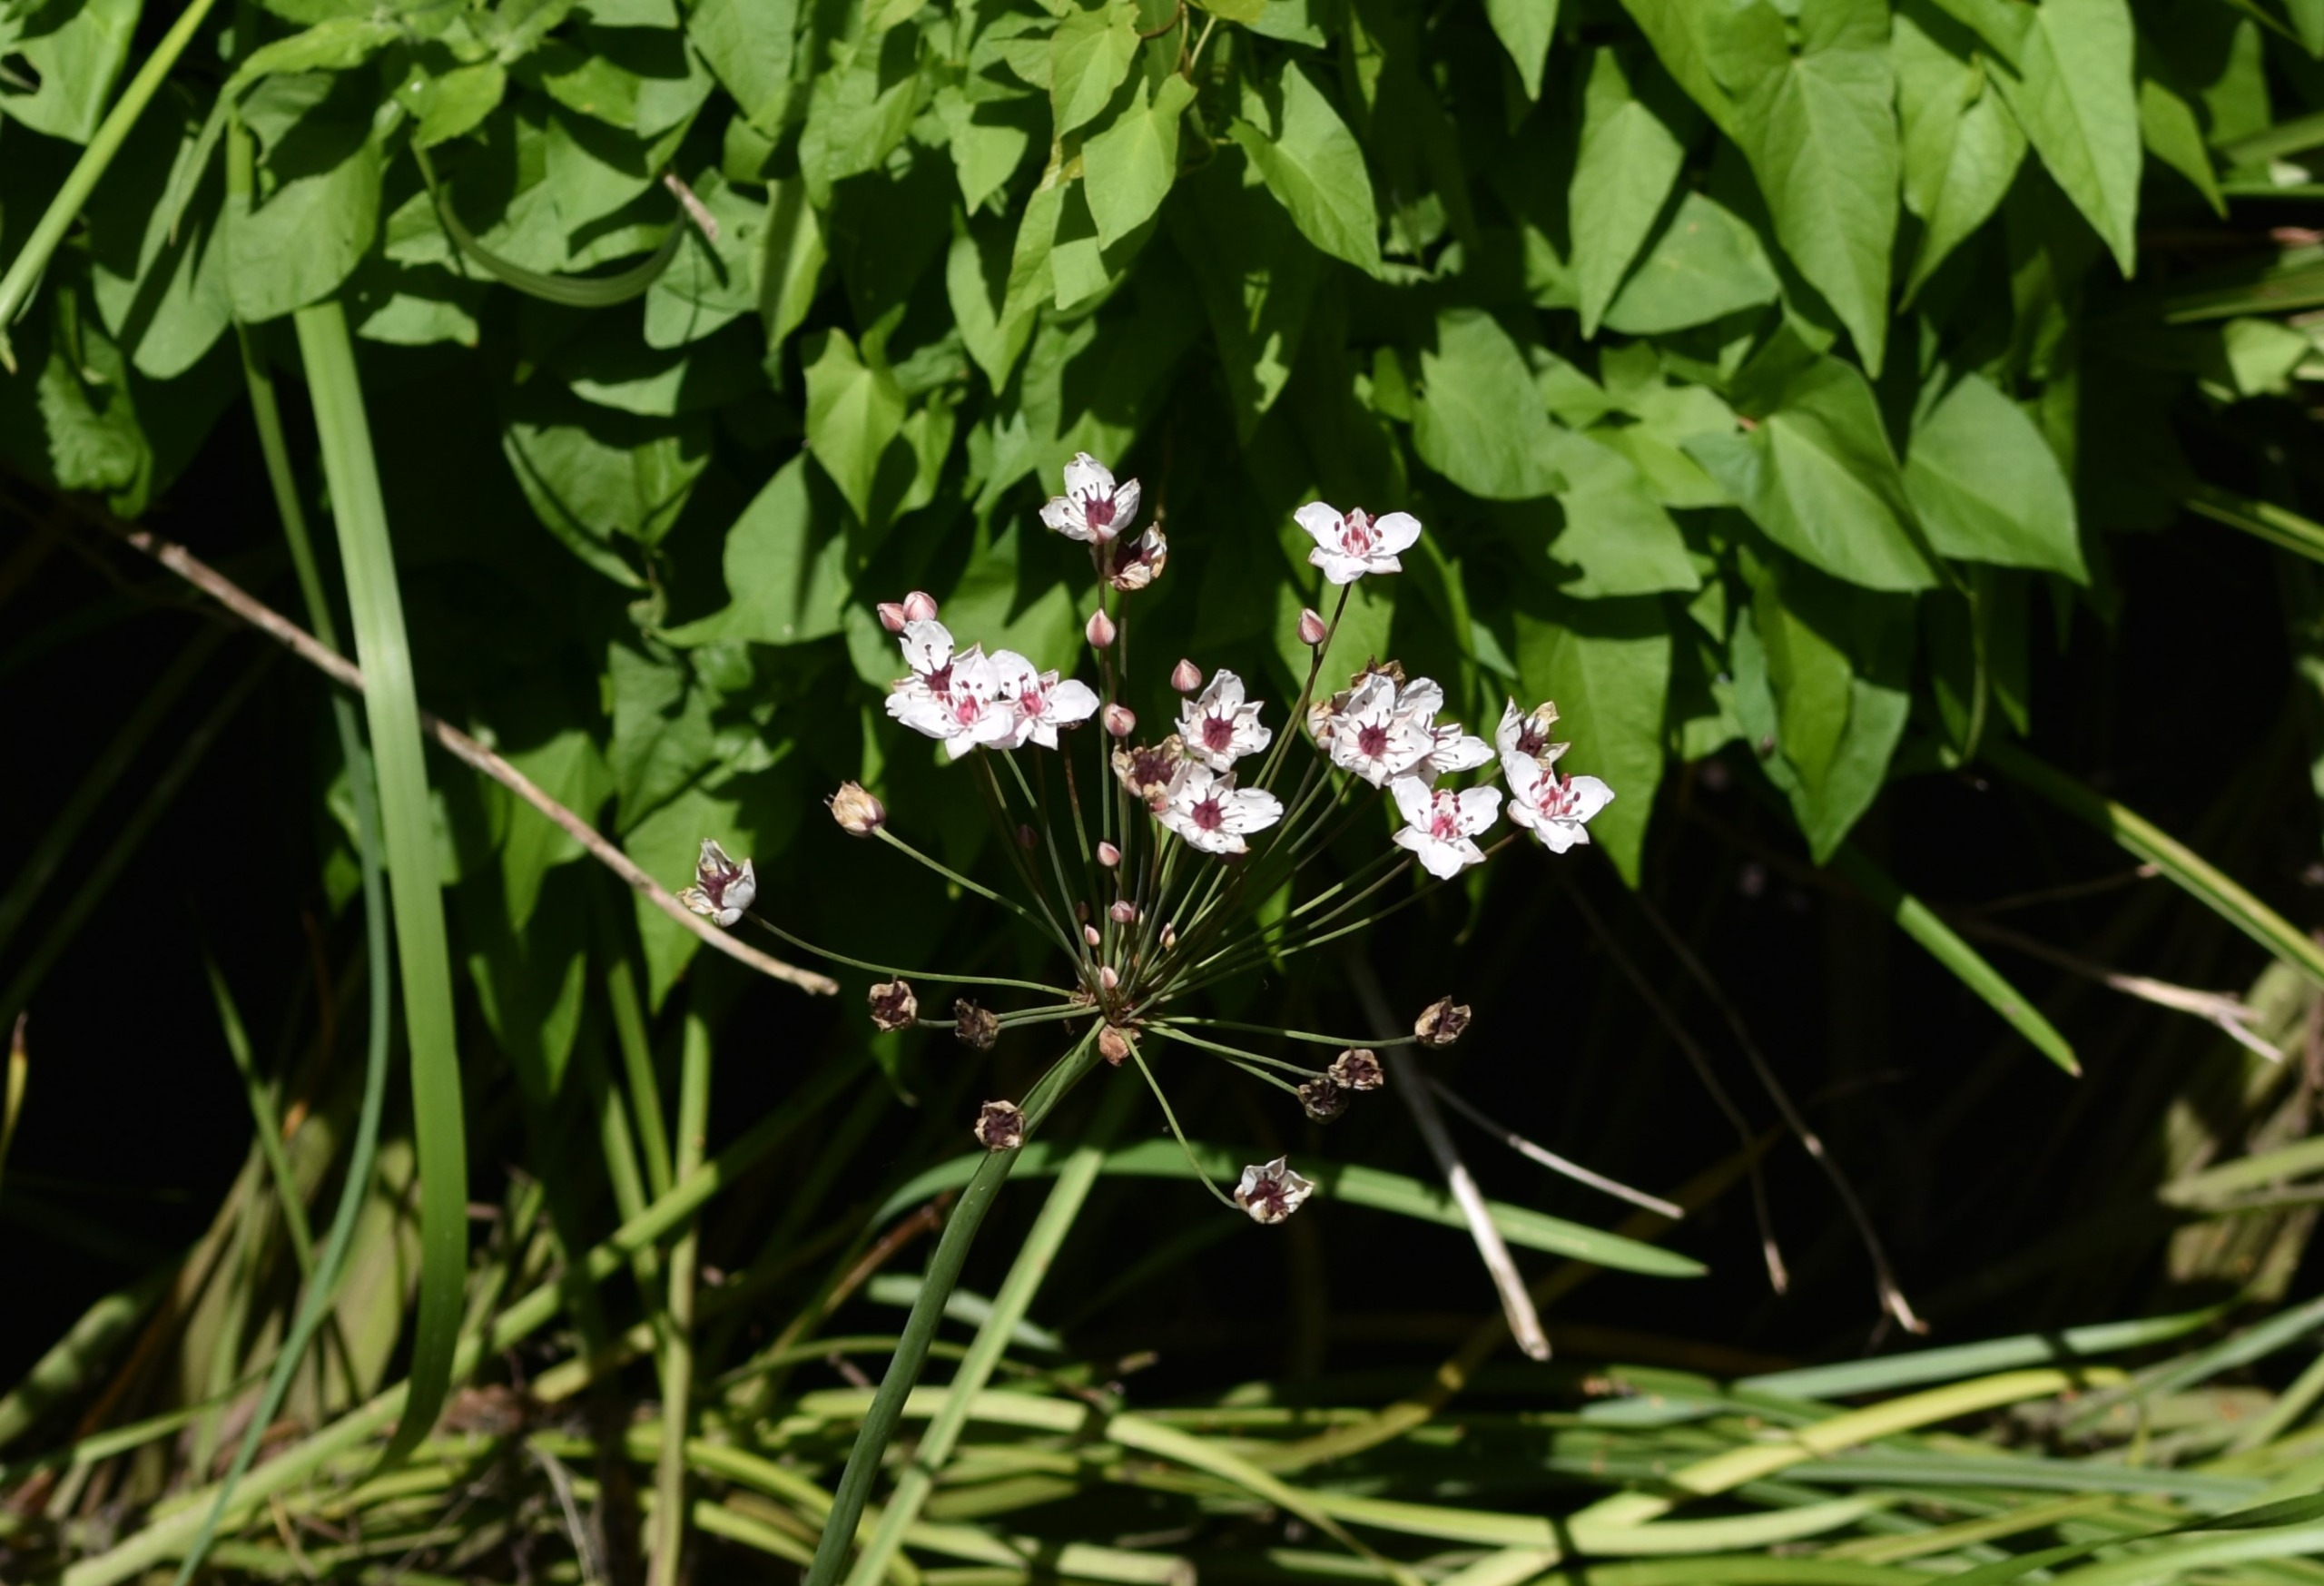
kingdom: Plantae
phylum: Tracheophyta
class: Liliopsida
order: Alismatales
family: Butomaceae
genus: Butomus
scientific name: Butomus umbellatus
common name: Brudelys
